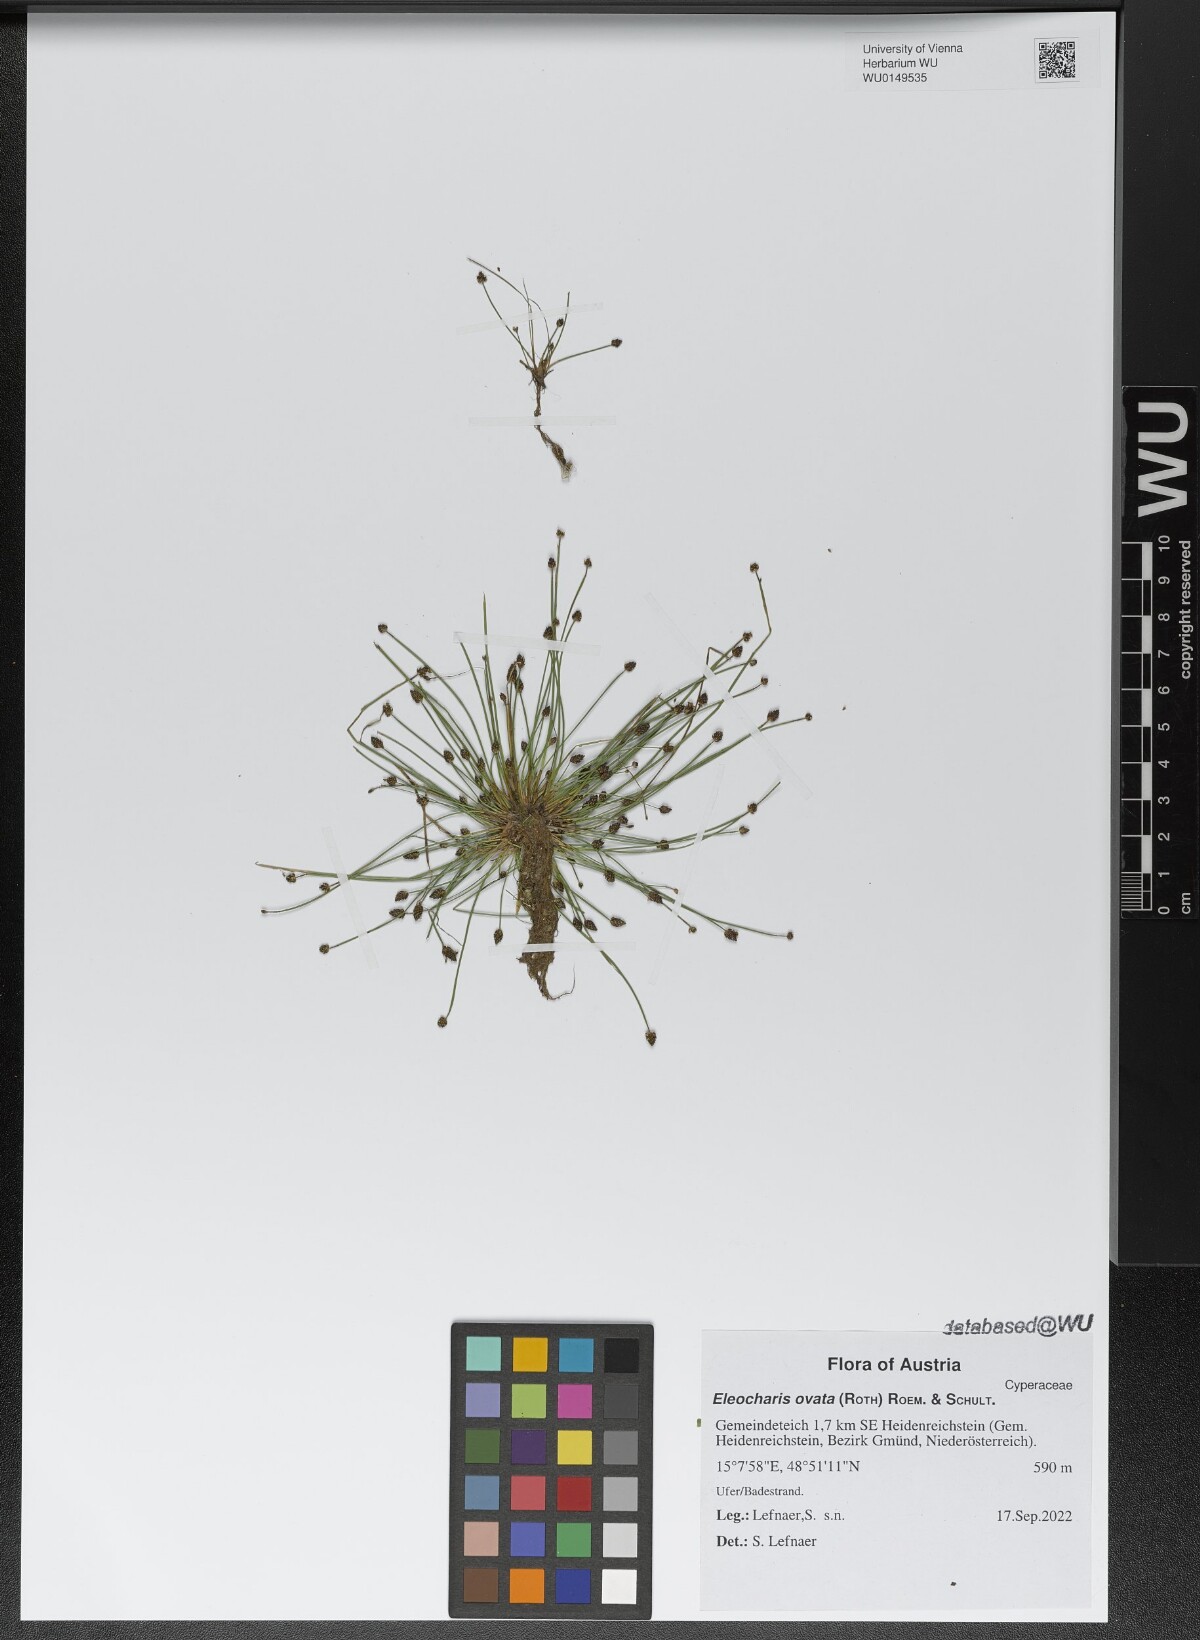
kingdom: Plantae
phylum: Tracheophyta
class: Liliopsida
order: Poales
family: Cyperaceae
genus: Eleocharis
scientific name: Eleocharis ovata
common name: Oval spike-rush
